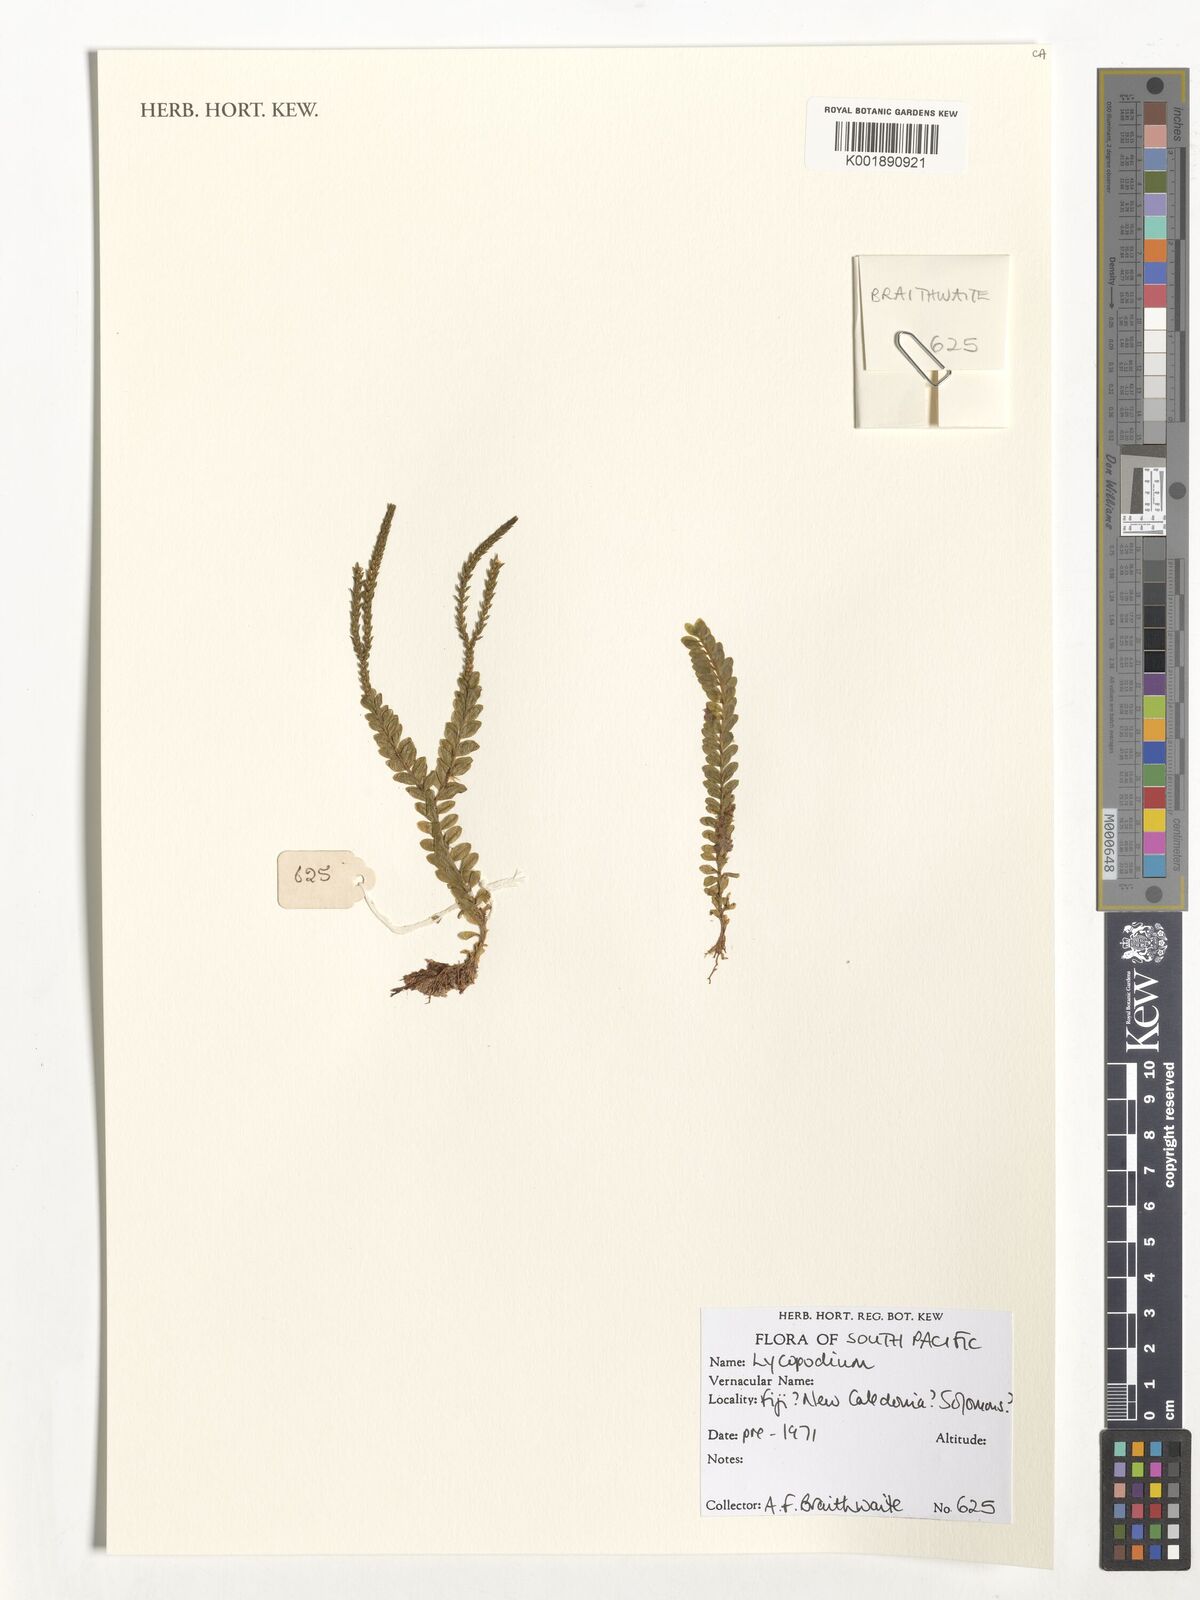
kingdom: Plantae
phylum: Tracheophyta
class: Lycopodiopsida
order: Lycopodiales
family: Lycopodiaceae
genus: Lycopodium
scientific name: Lycopodium
